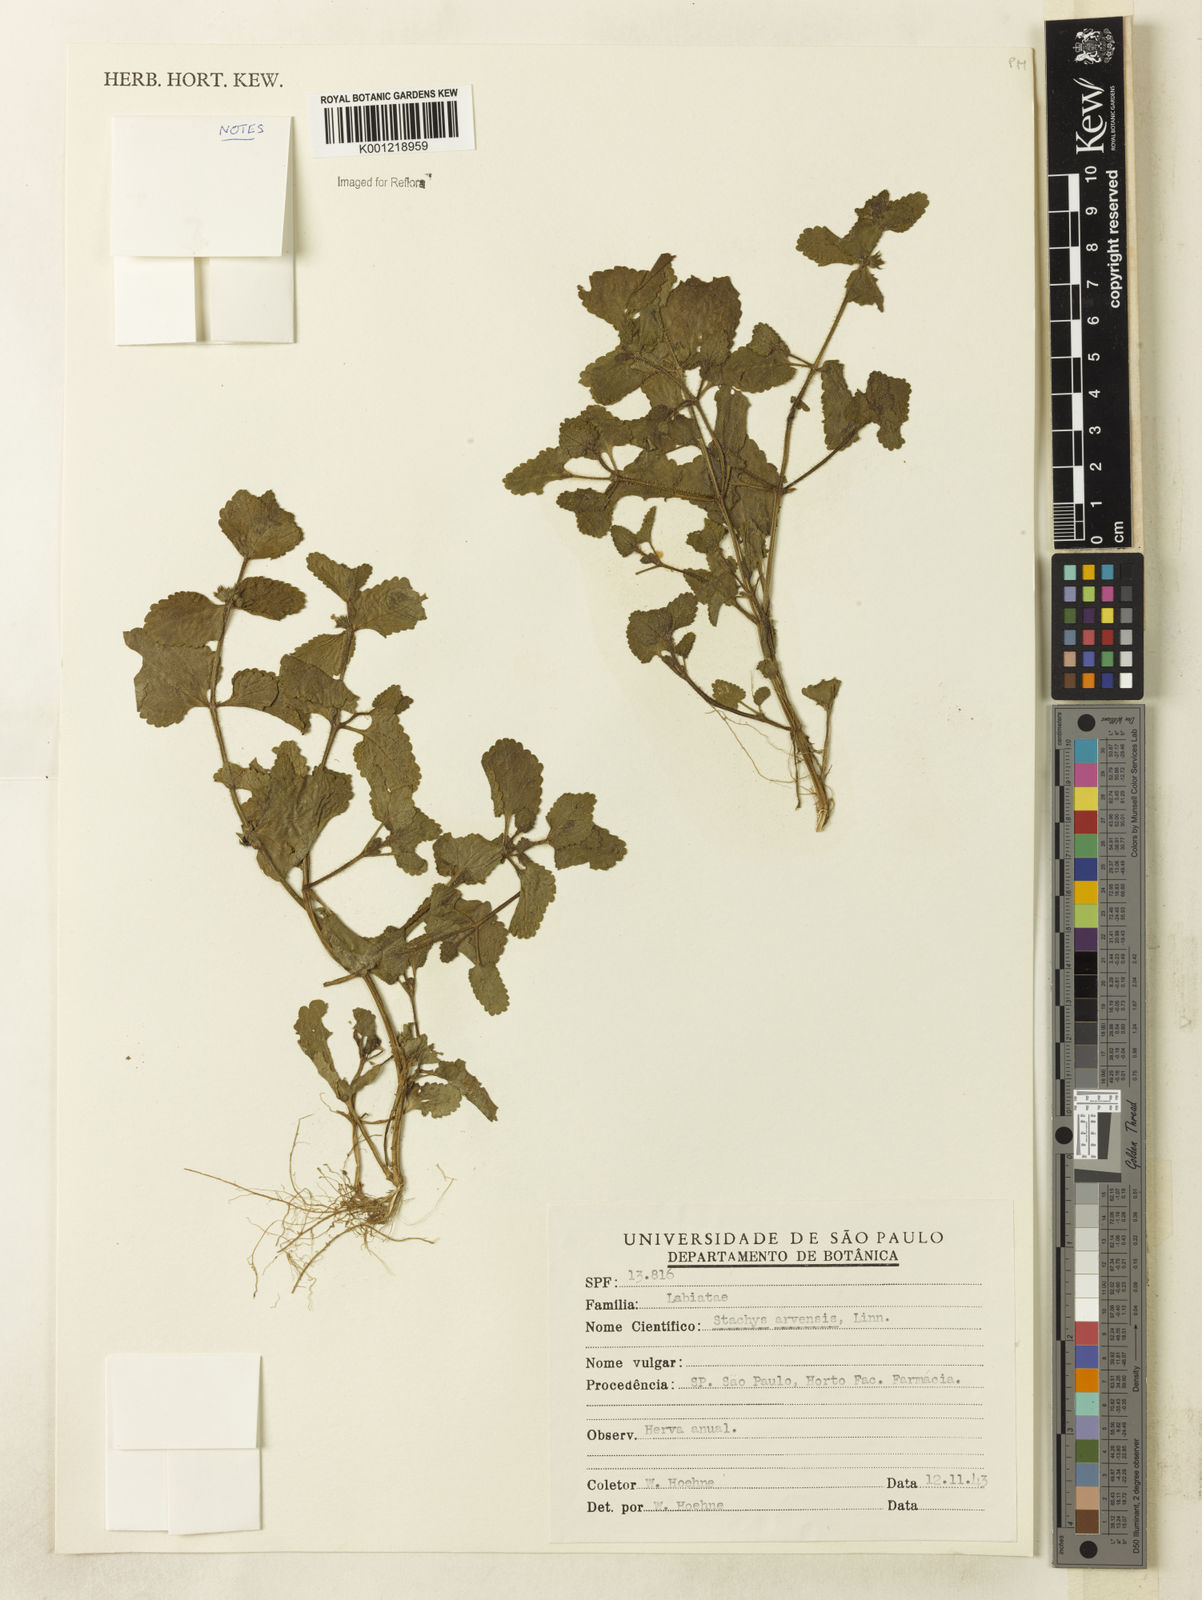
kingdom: Plantae
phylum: Tracheophyta
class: Magnoliopsida
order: Lamiales
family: Lamiaceae
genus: Stachys
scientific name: Stachys arvensis
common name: Field woundwort
